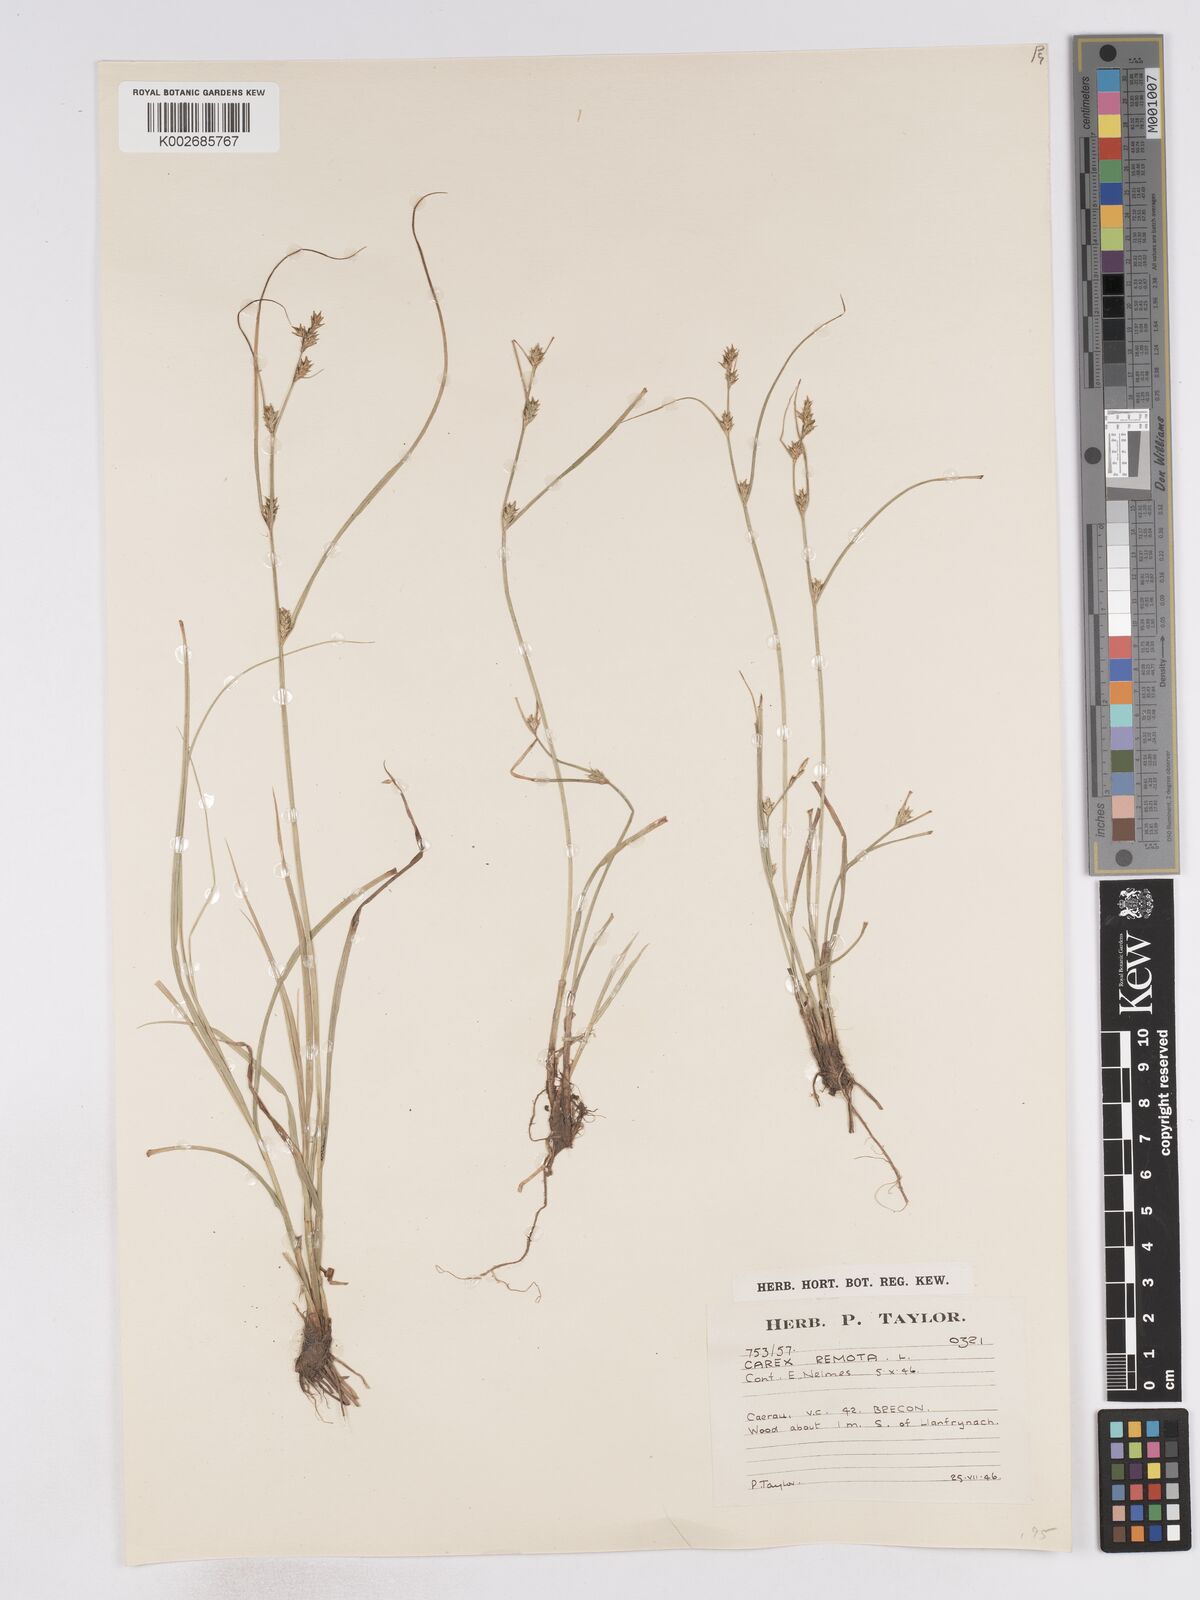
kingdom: Plantae
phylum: Tracheophyta
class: Liliopsida
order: Poales
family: Cyperaceae
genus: Carex
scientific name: Carex remota
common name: Remote sedge
